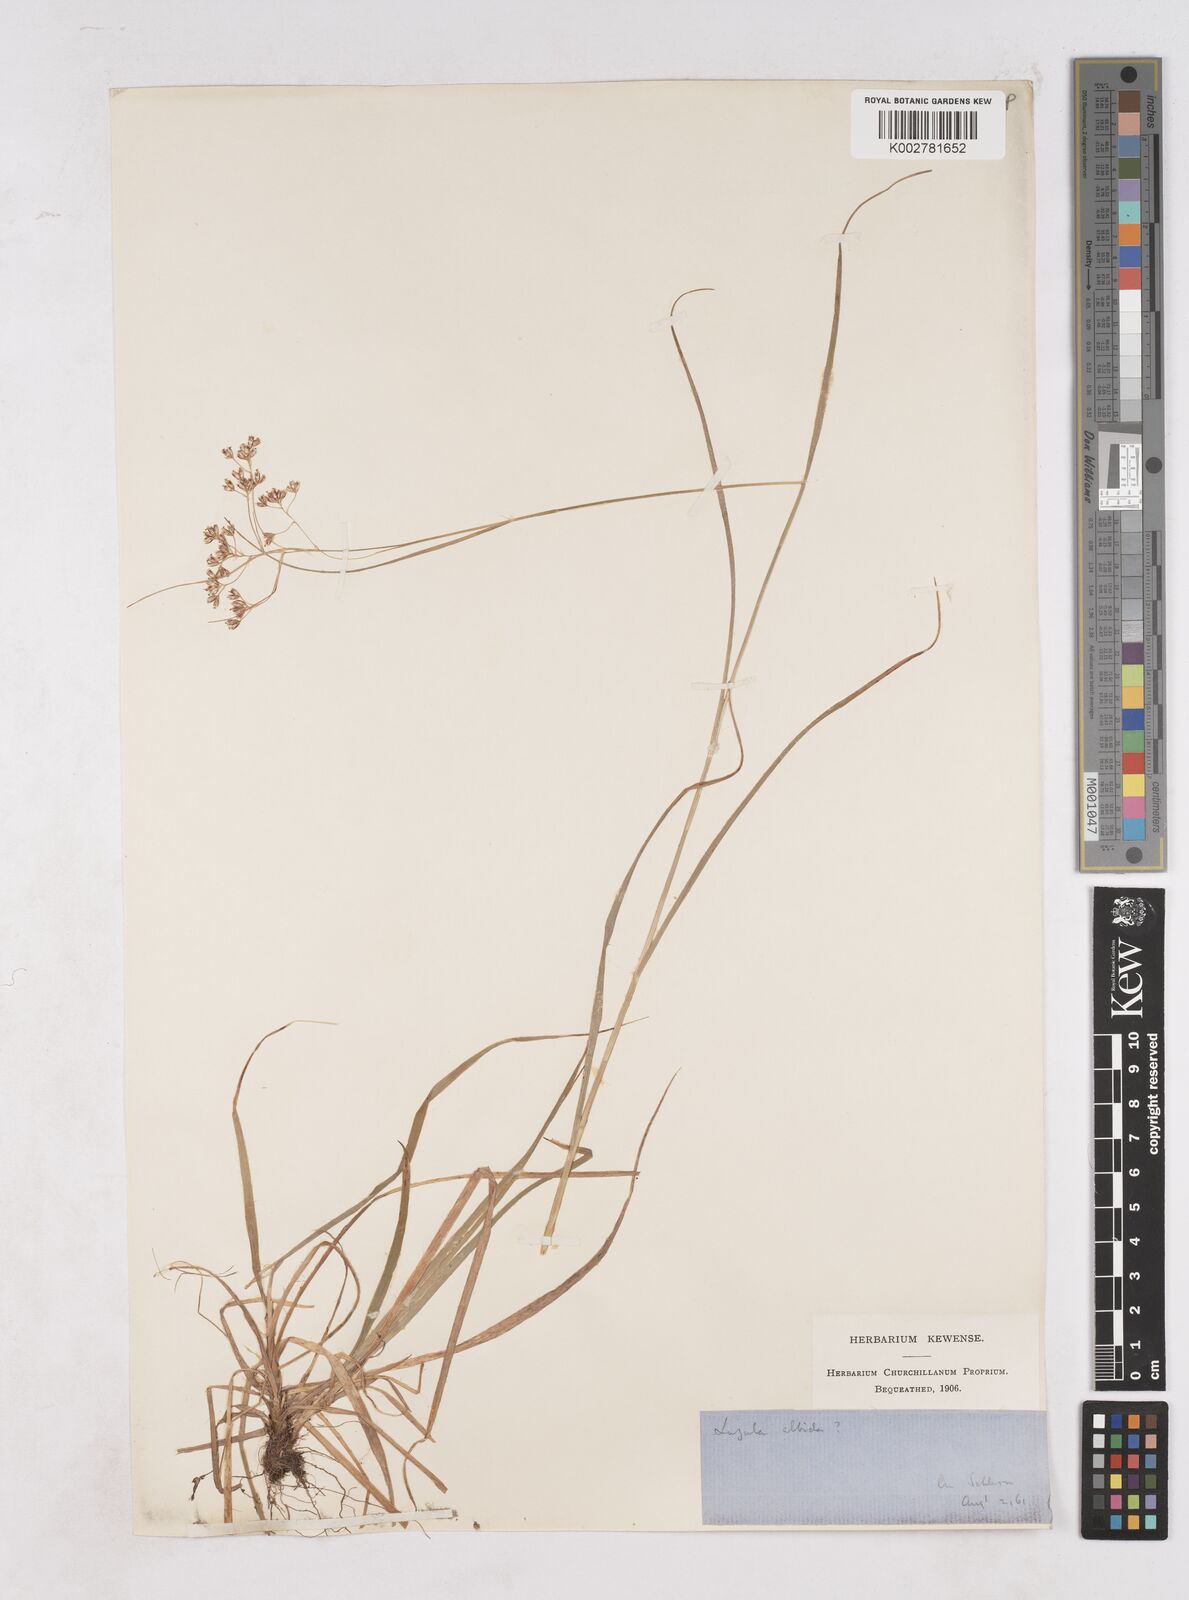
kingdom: Plantae
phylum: Tracheophyta
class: Liliopsida
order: Poales
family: Juncaceae
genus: Luzula
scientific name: Luzula luzuloides
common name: White wood-rush
